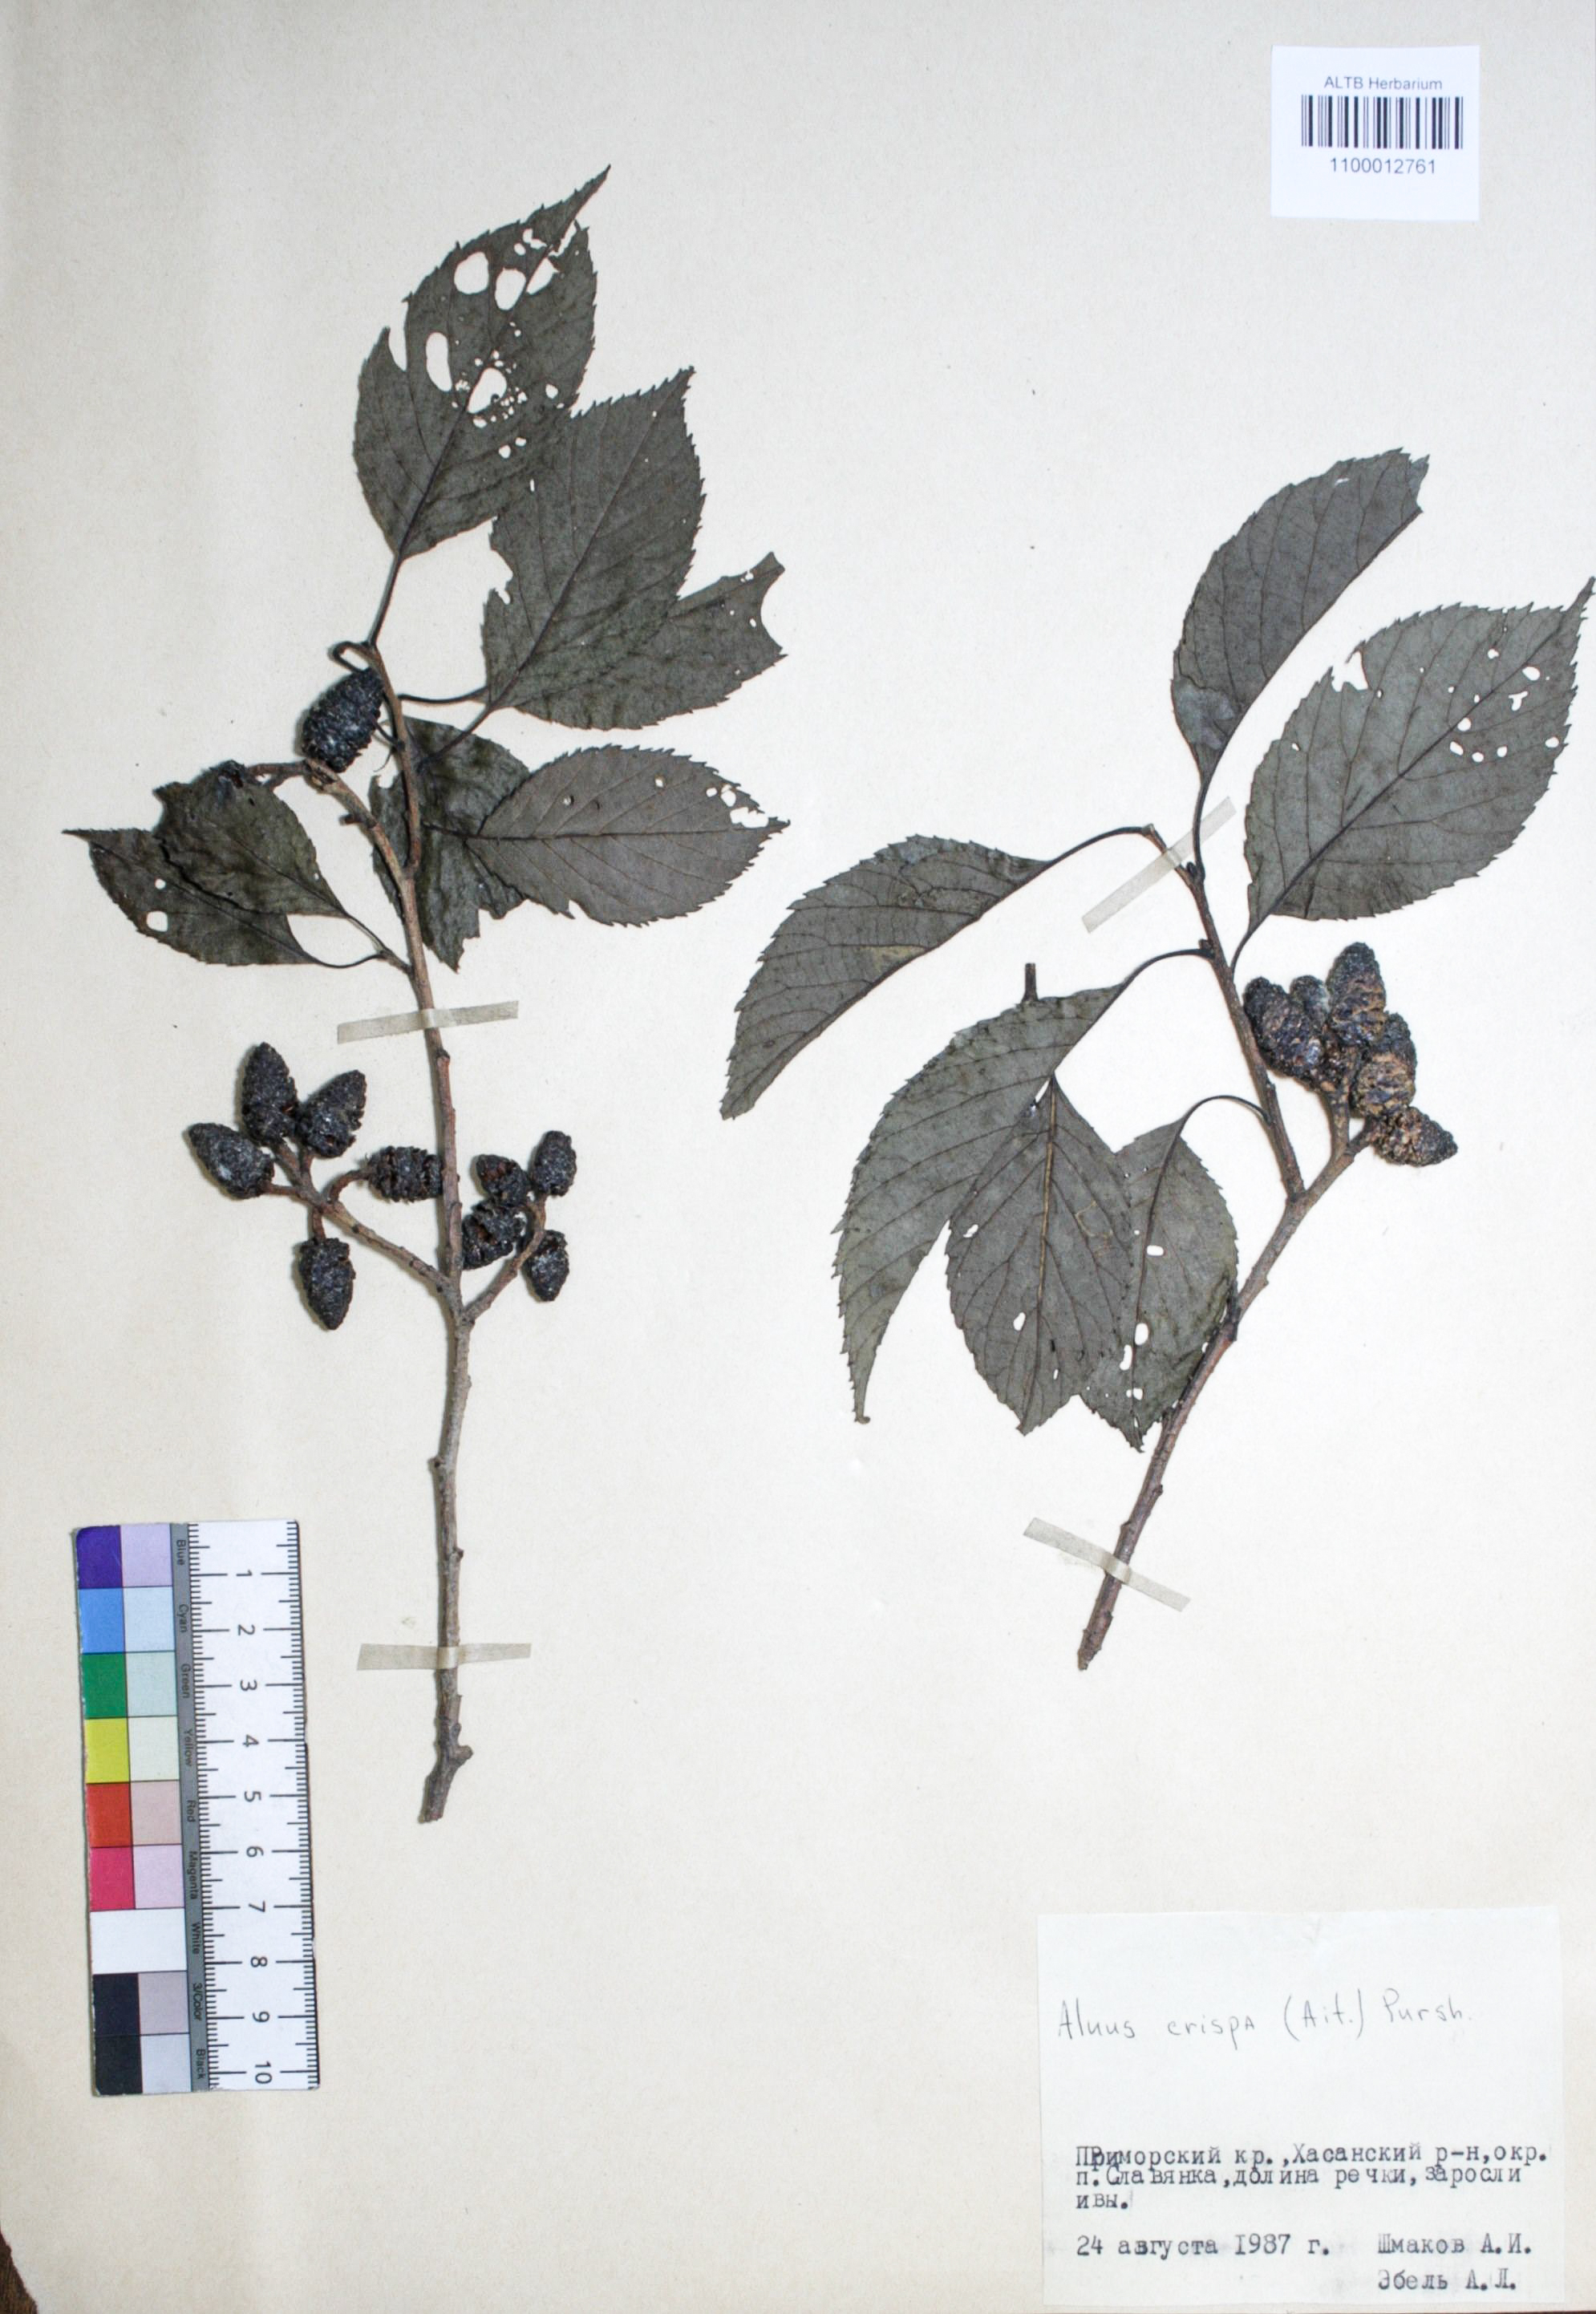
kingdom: Plantae
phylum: Tracheophyta
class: Magnoliopsida
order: Fagales
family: Betulaceae
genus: Alnus
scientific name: Alnus alnobetula
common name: Green alder
